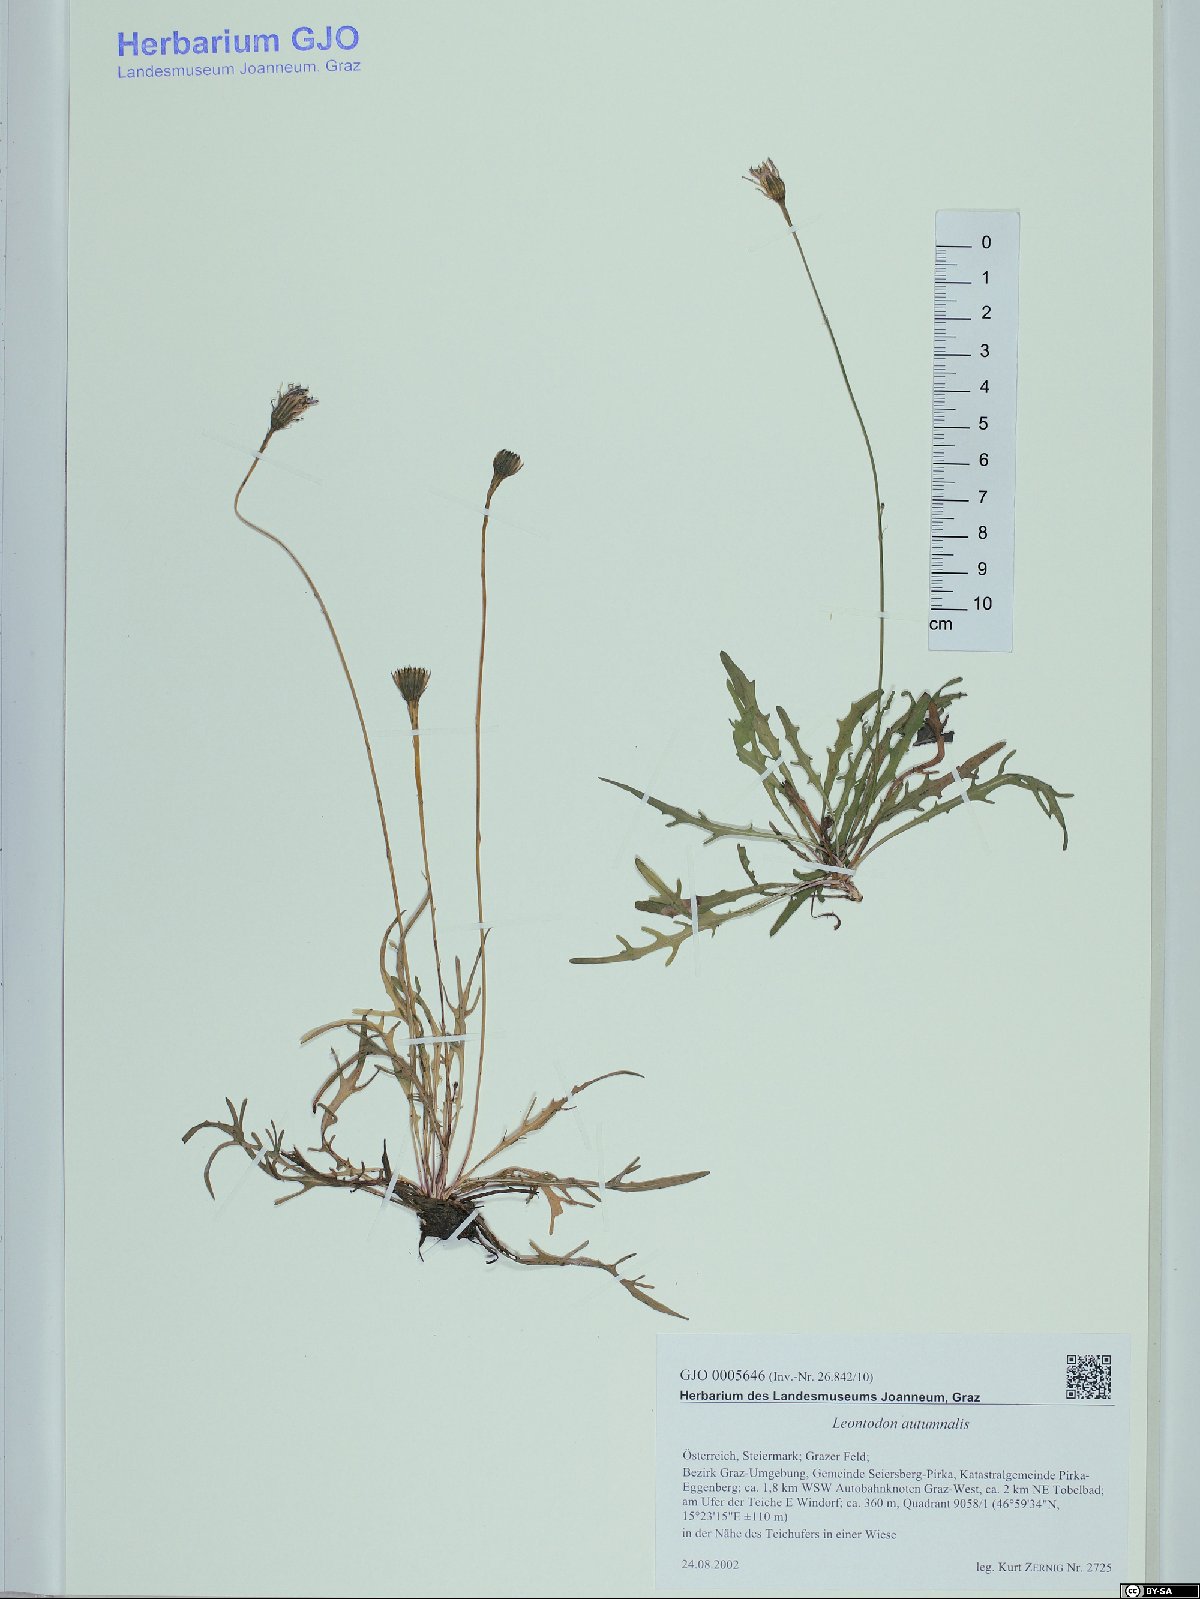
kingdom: Plantae
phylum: Tracheophyta
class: Magnoliopsida
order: Asterales
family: Asteraceae
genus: Scorzoneroides
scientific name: Scorzoneroides autumnalis
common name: Autumn hawkbit
